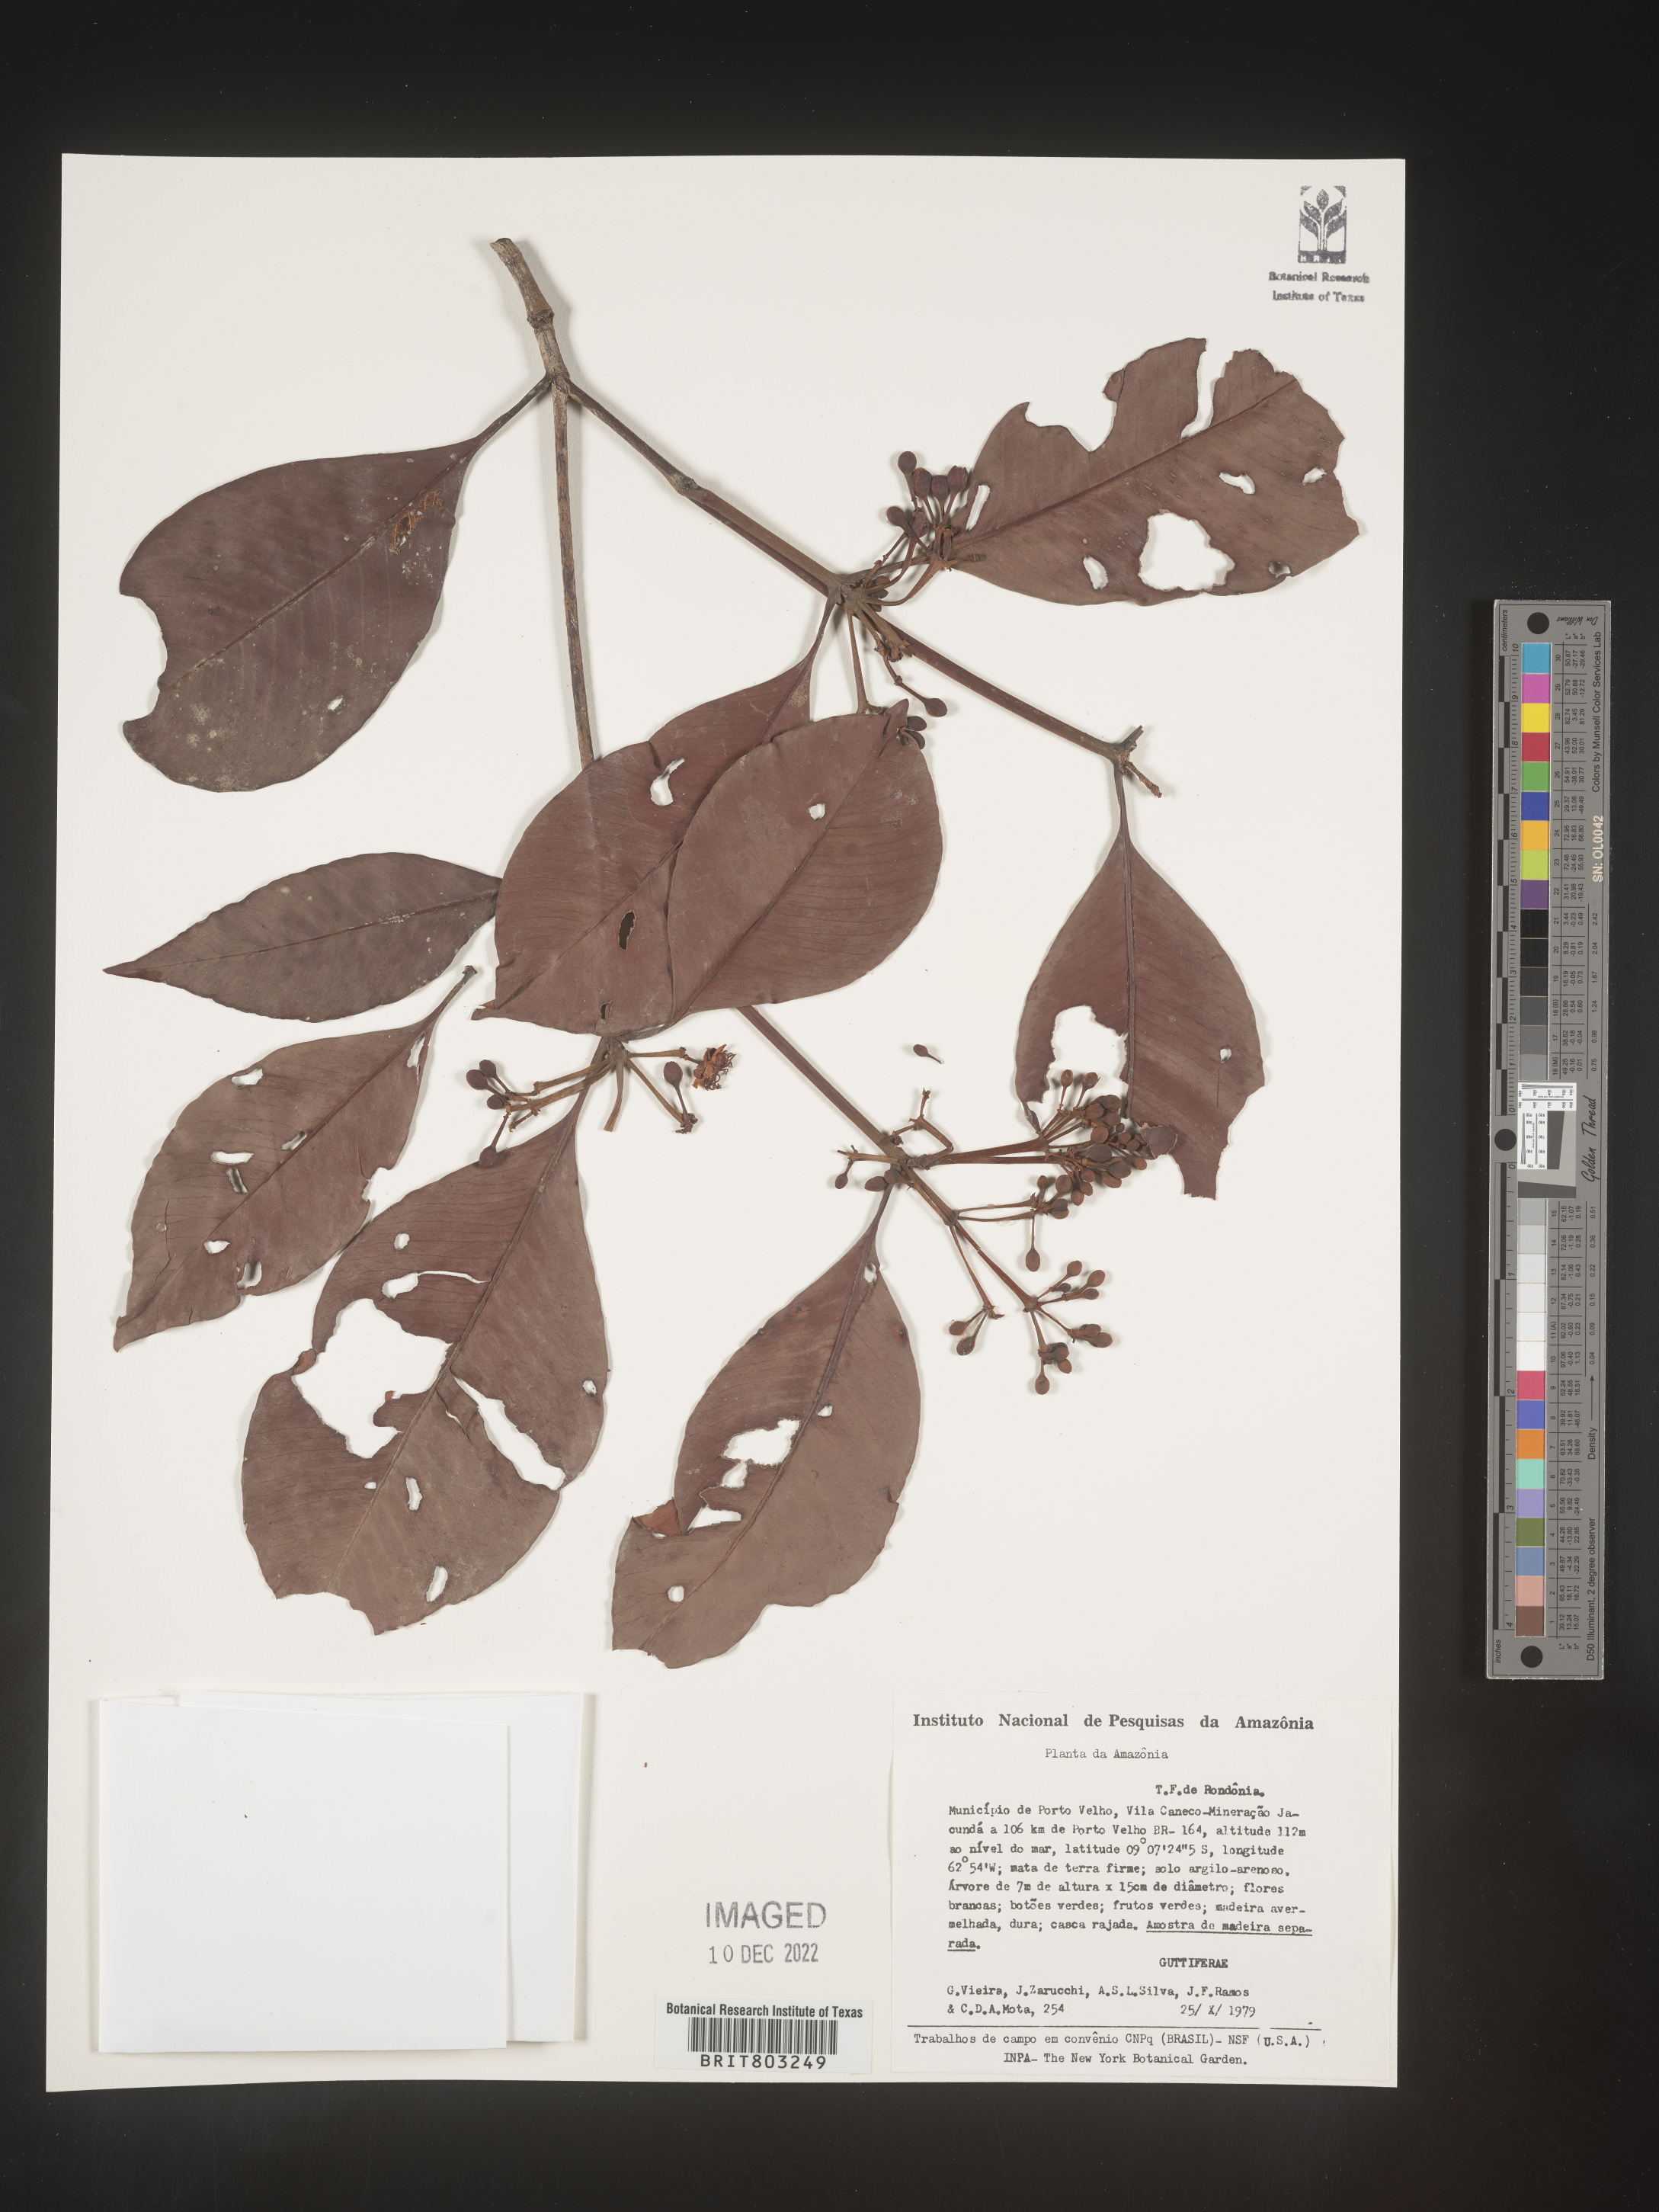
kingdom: Plantae
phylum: Tracheophyta
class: Magnoliopsida
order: Malpighiales
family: Clusiaceae
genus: Tovomita
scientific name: Tovomita
